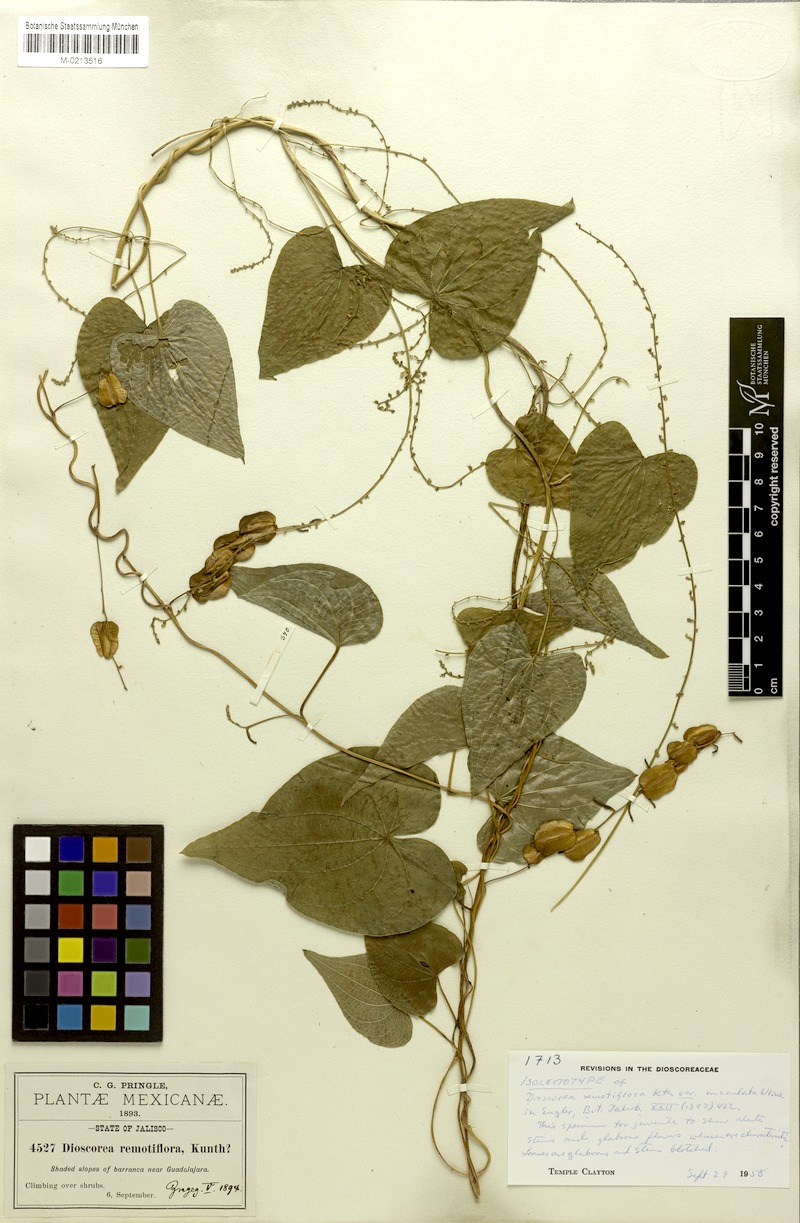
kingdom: Plantae
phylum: Tracheophyta
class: Liliopsida
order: Dioscoreales
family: Dioscoreaceae
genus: Dioscorea
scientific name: Dioscorea remotiflora
